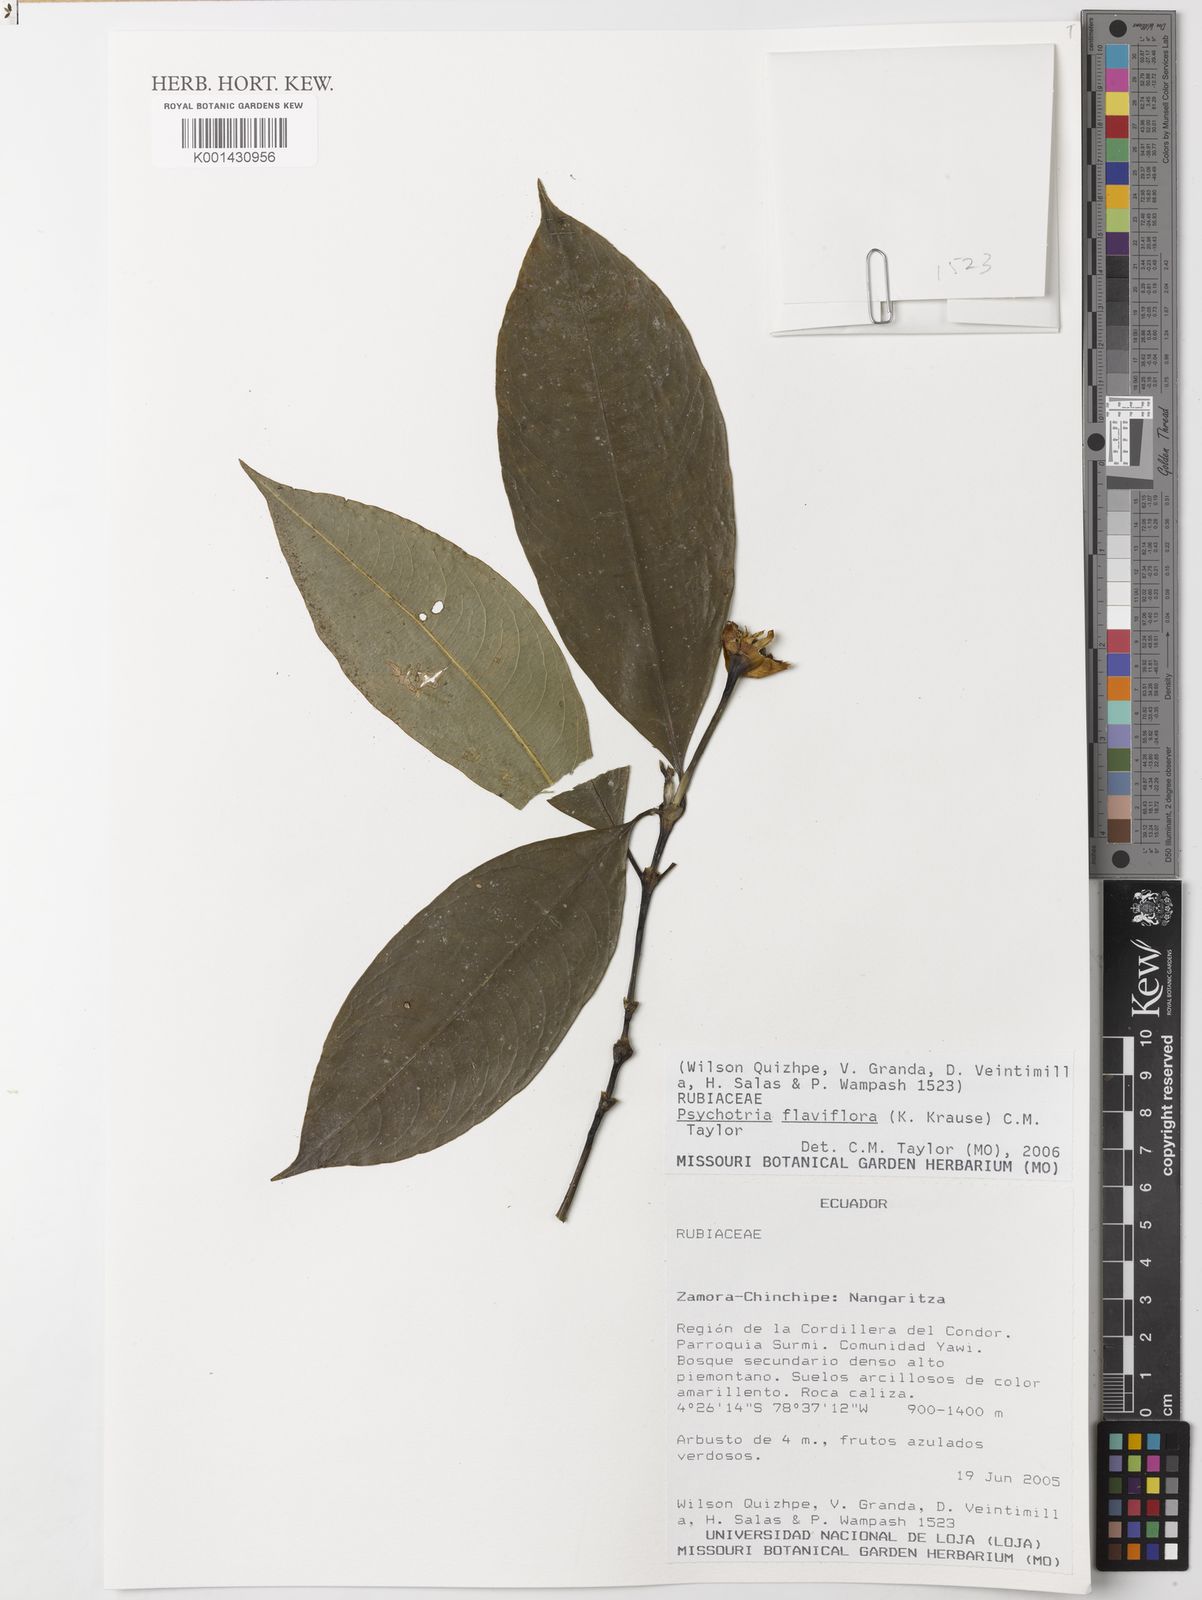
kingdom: Plantae
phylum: Tracheophyta
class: Magnoliopsida
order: Gentianales
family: Rubiaceae
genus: Palicourea
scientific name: Palicourea flaviflora
